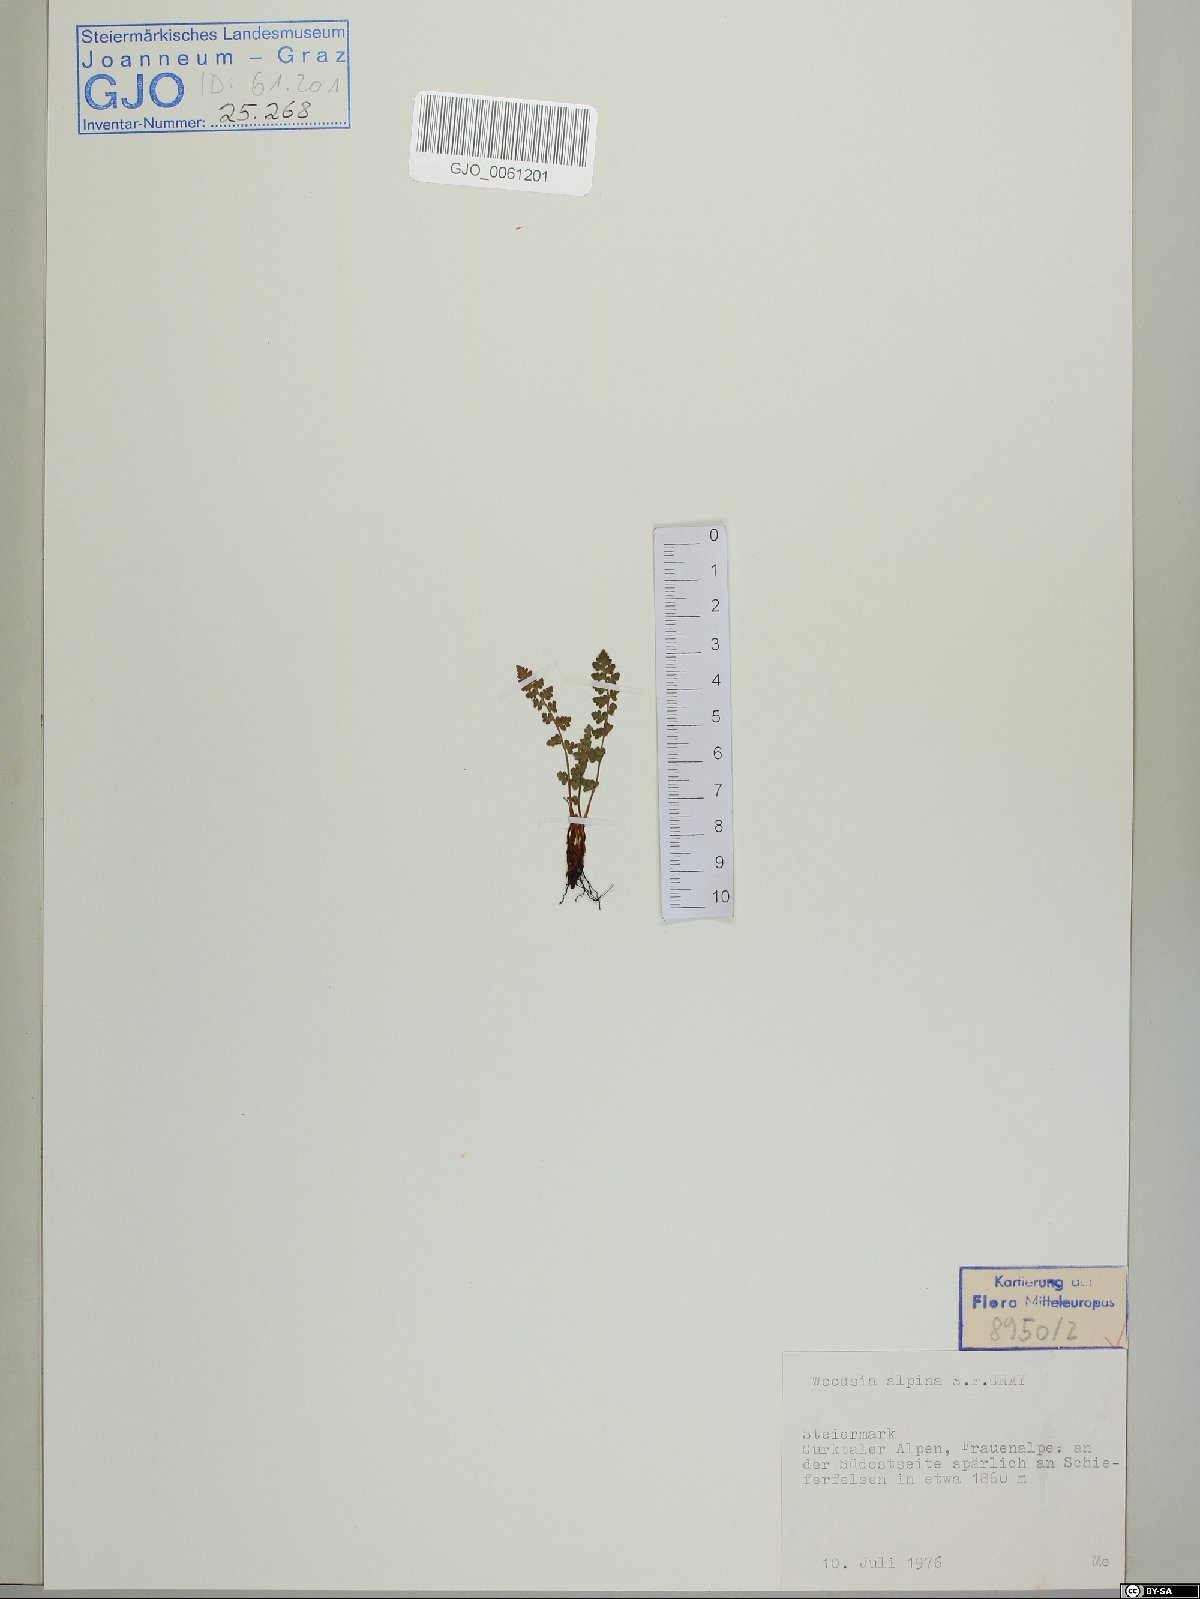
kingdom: Plantae
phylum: Tracheophyta
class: Polypodiopsida
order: Polypodiales
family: Woodsiaceae
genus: Woodsia
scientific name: Woodsia alpina
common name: Alpine woodsia
